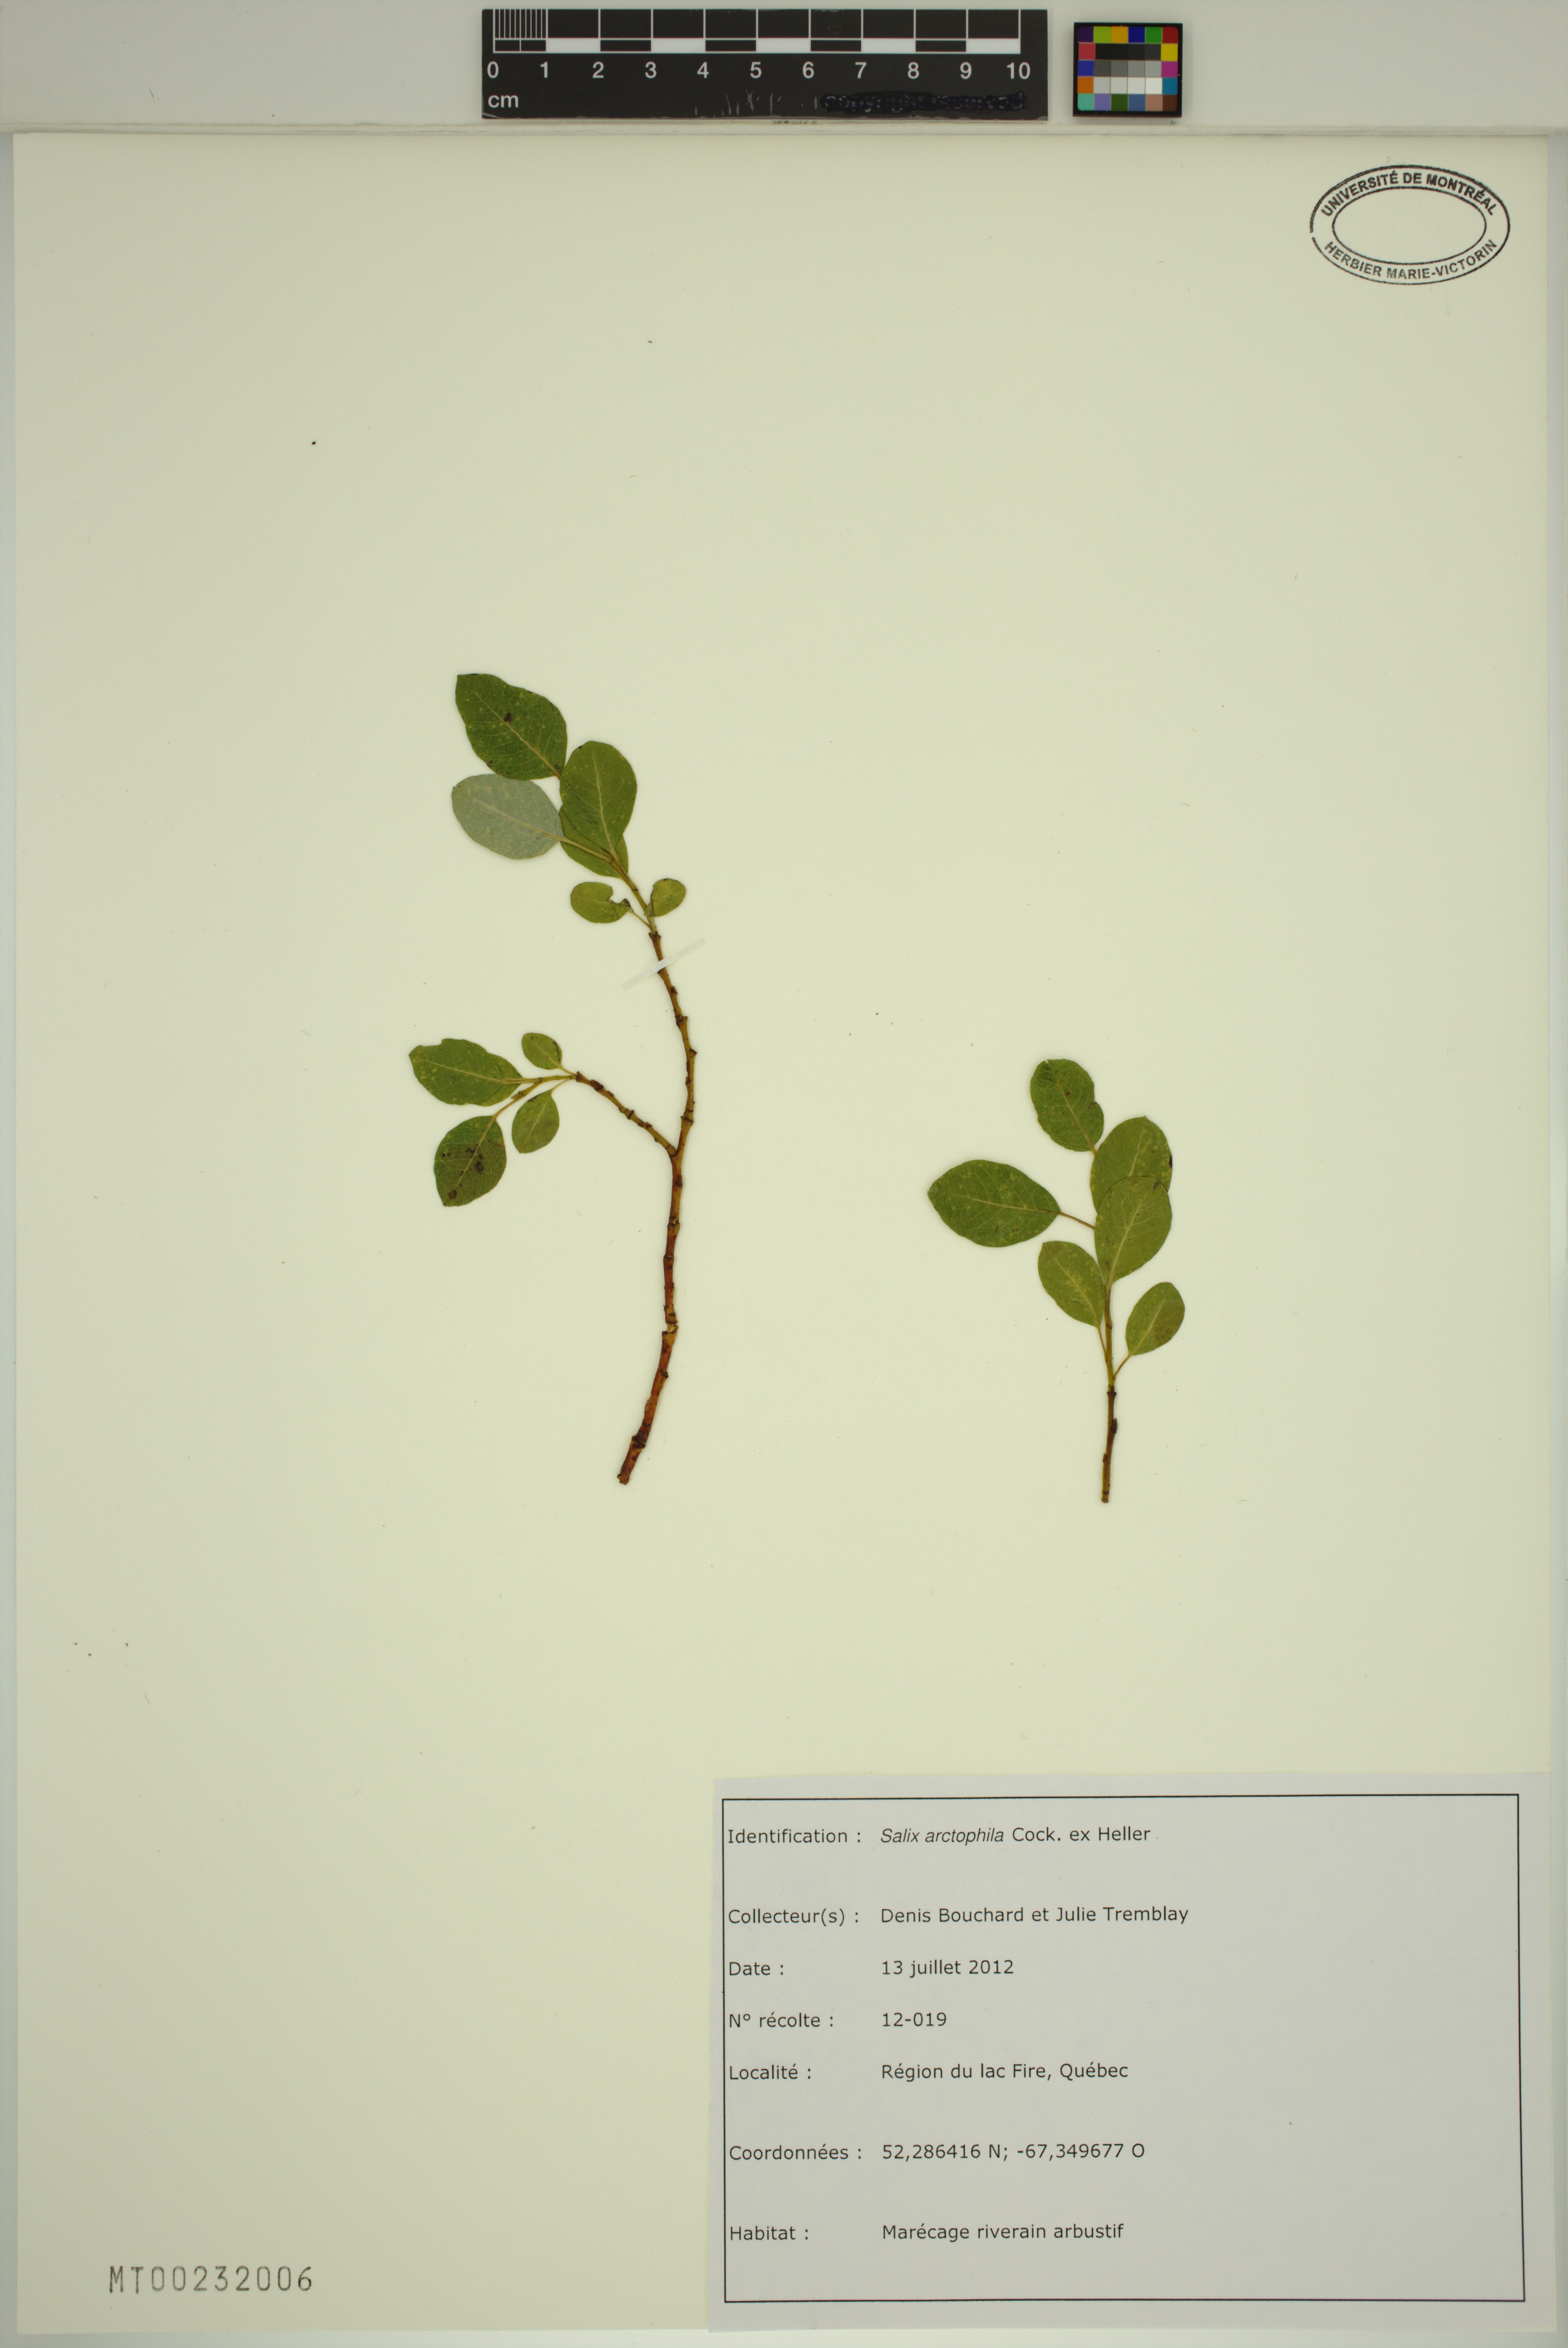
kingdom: Plantae
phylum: Tracheophyta
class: Magnoliopsida
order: Malpighiales
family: Salicaceae
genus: Salix
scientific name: Salix arctophila
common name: Greenland willow
